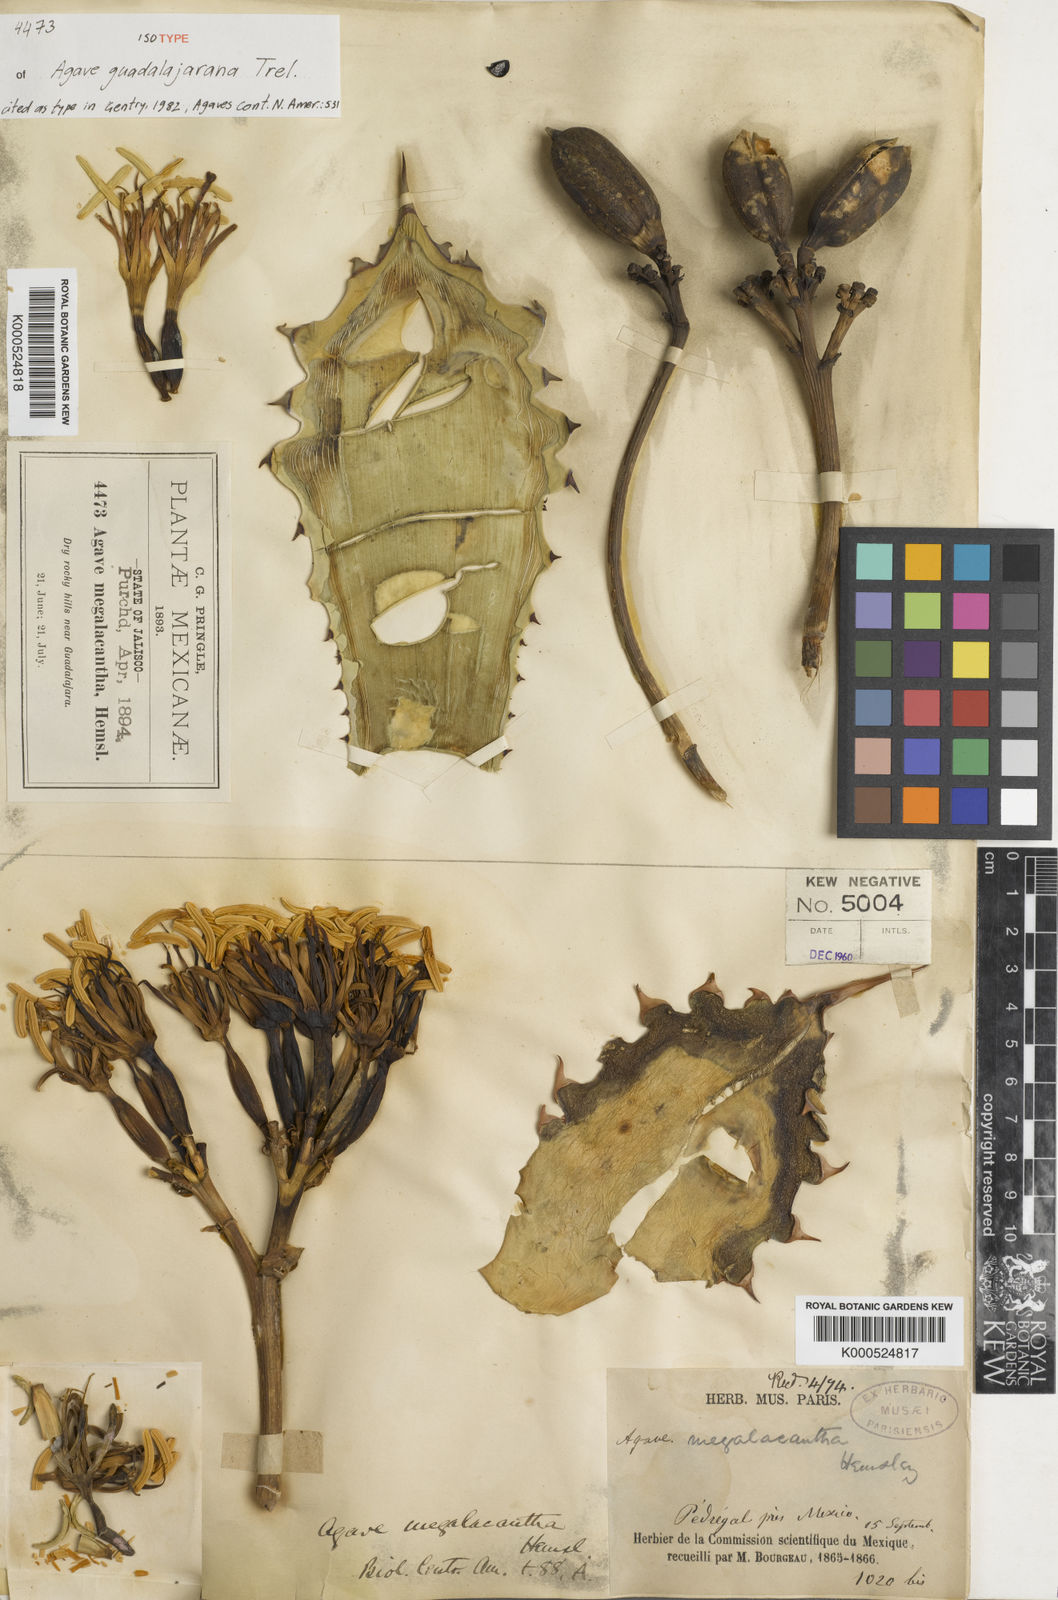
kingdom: Plantae
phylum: Tracheophyta
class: Liliopsida
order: Asparagales
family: Asparagaceae
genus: Agave
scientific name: Agave guadalajarana
